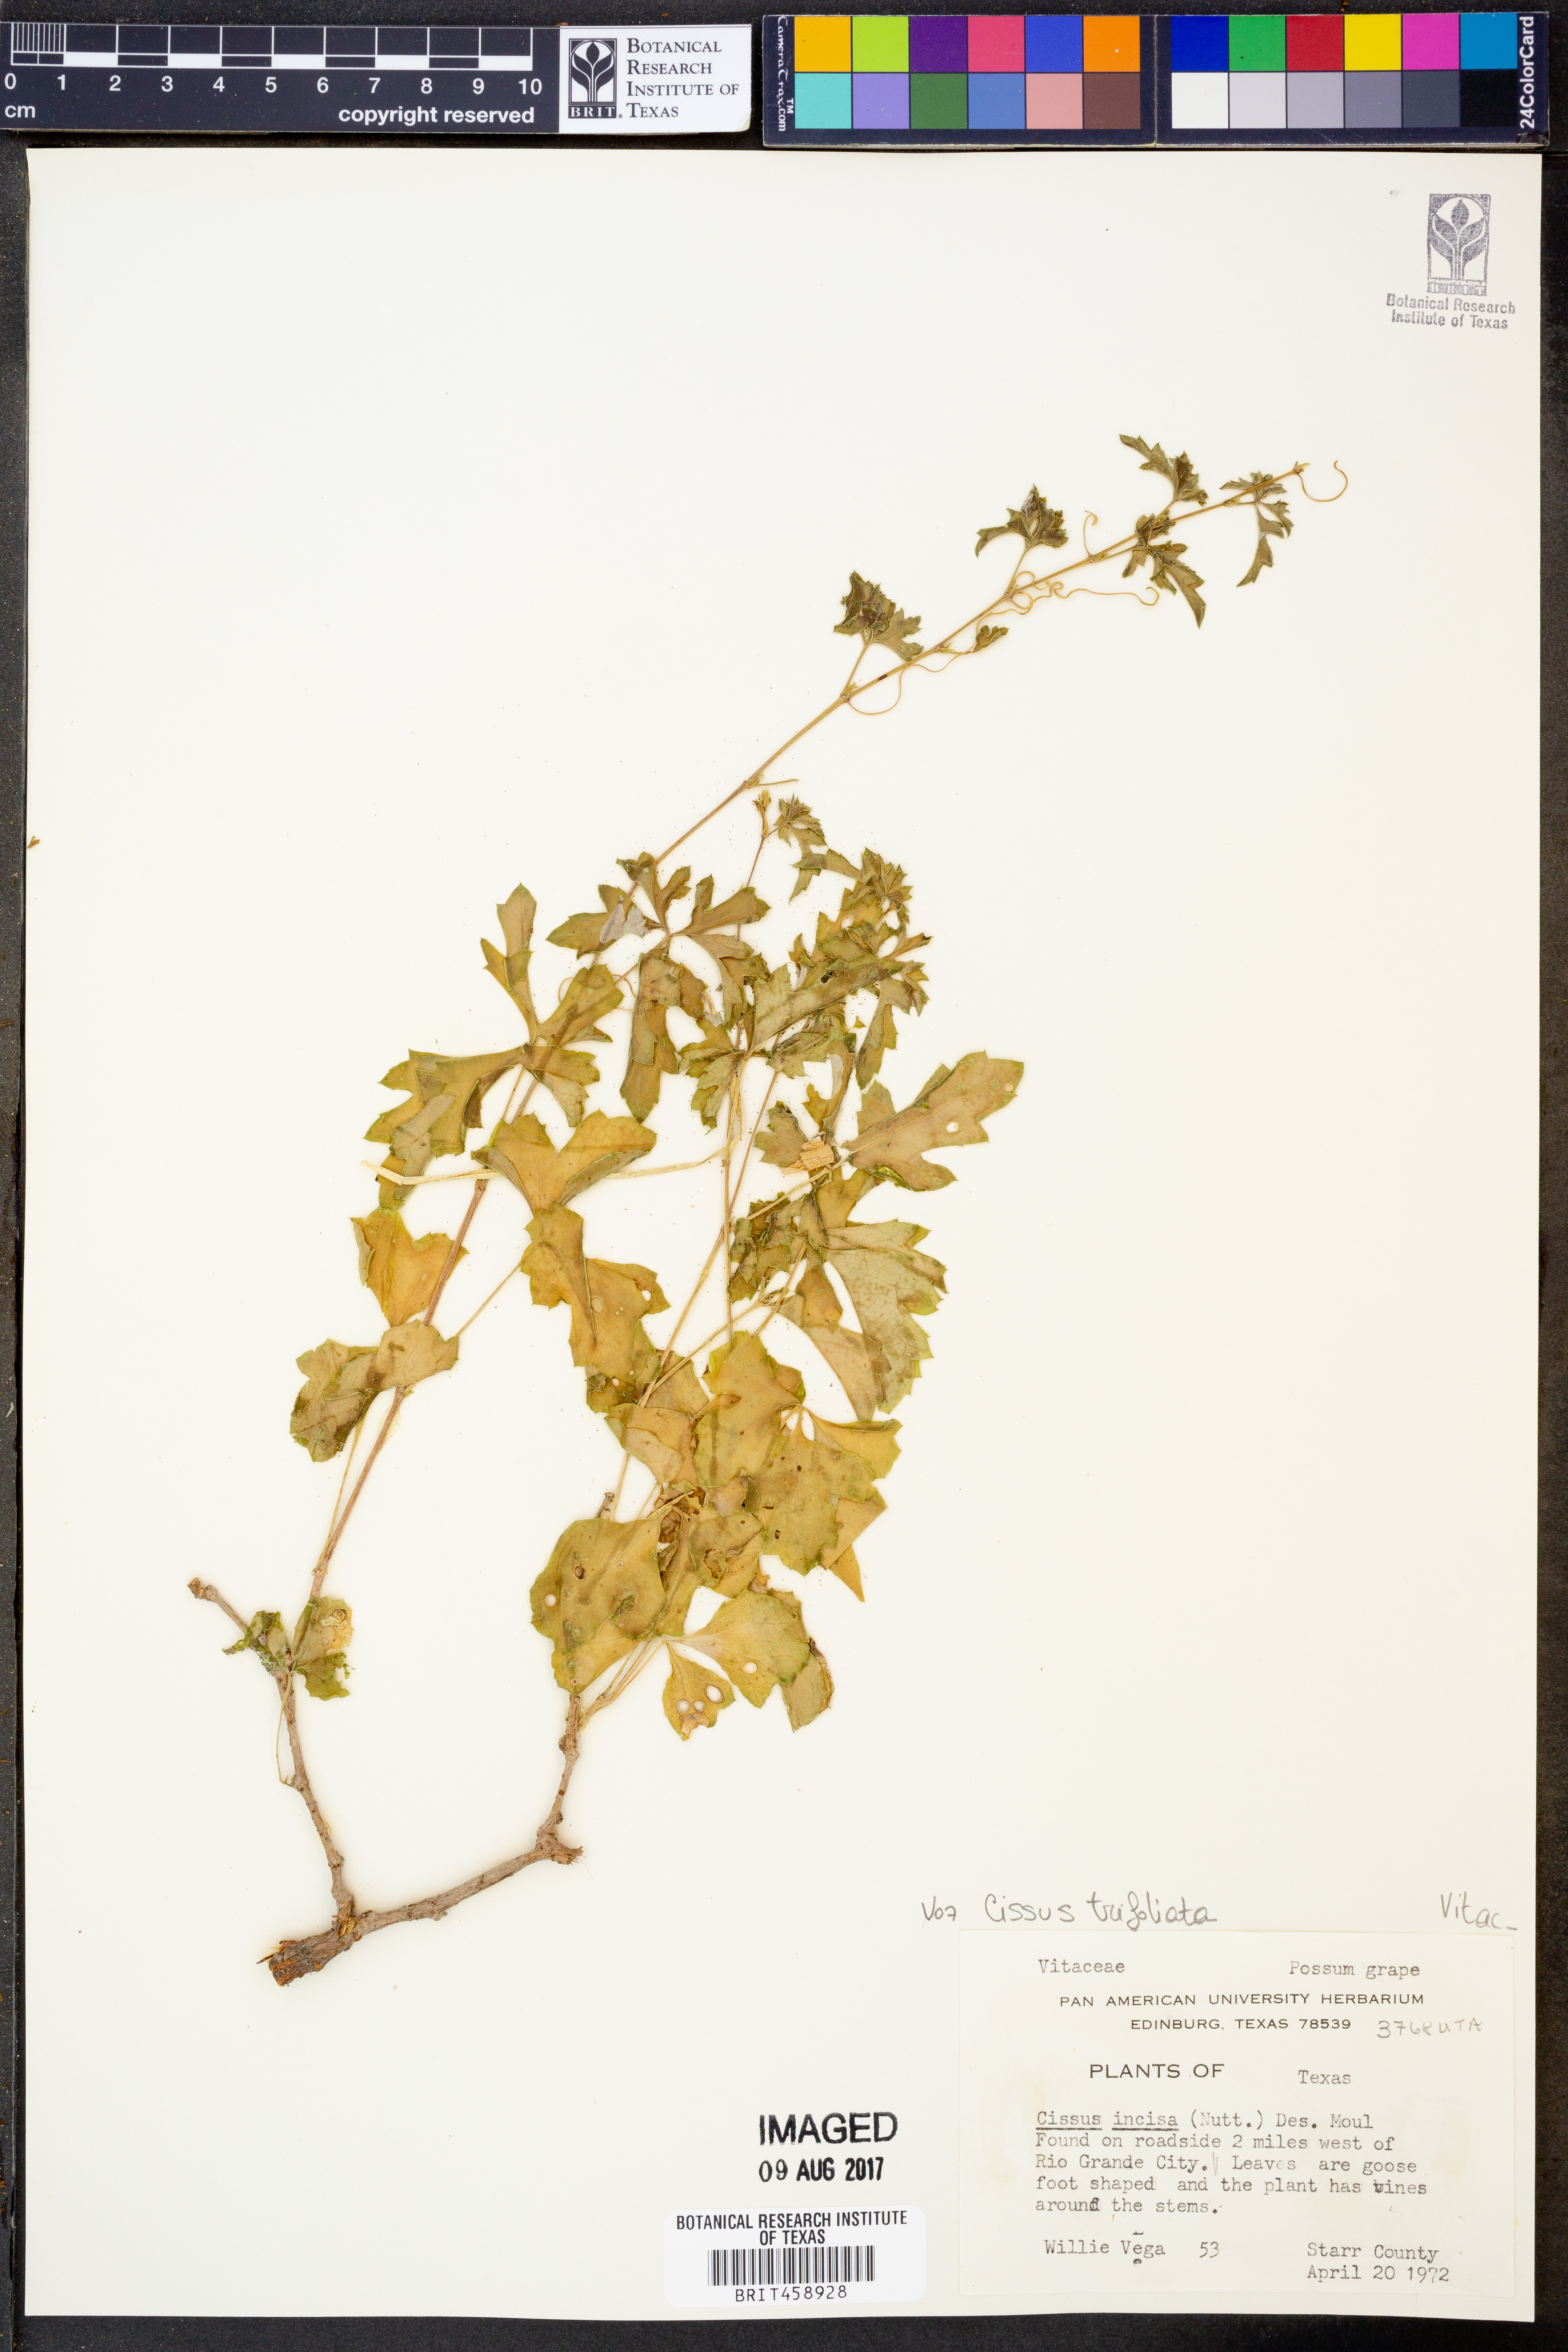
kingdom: Plantae
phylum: Tracheophyta
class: Magnoliopsida
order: Vitales
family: Vitaceae
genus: Cissus
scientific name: Cissus trifoliata
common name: Vine-sorrel
